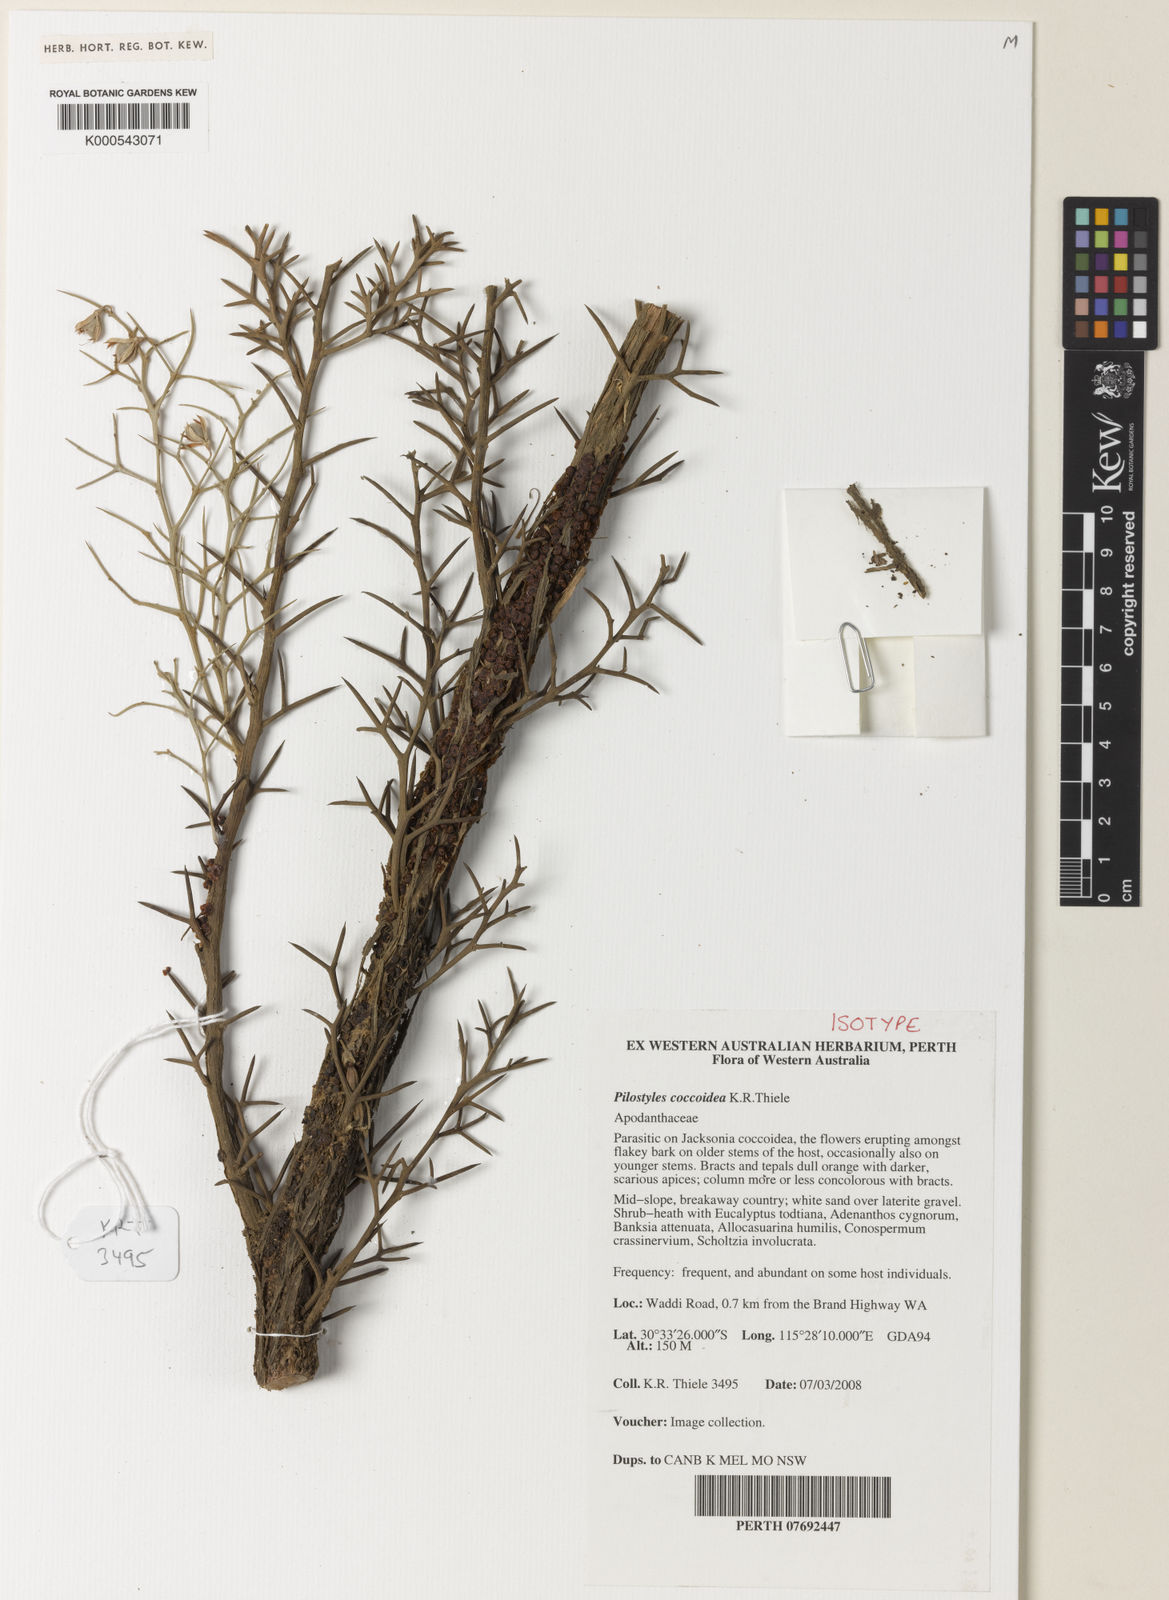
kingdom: Plantae
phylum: Tracheophyta
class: Magnoliopsida
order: Cucurbitales
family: Apodanthaceae
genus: Pilostyles
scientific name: Pilostyles coccoidea
